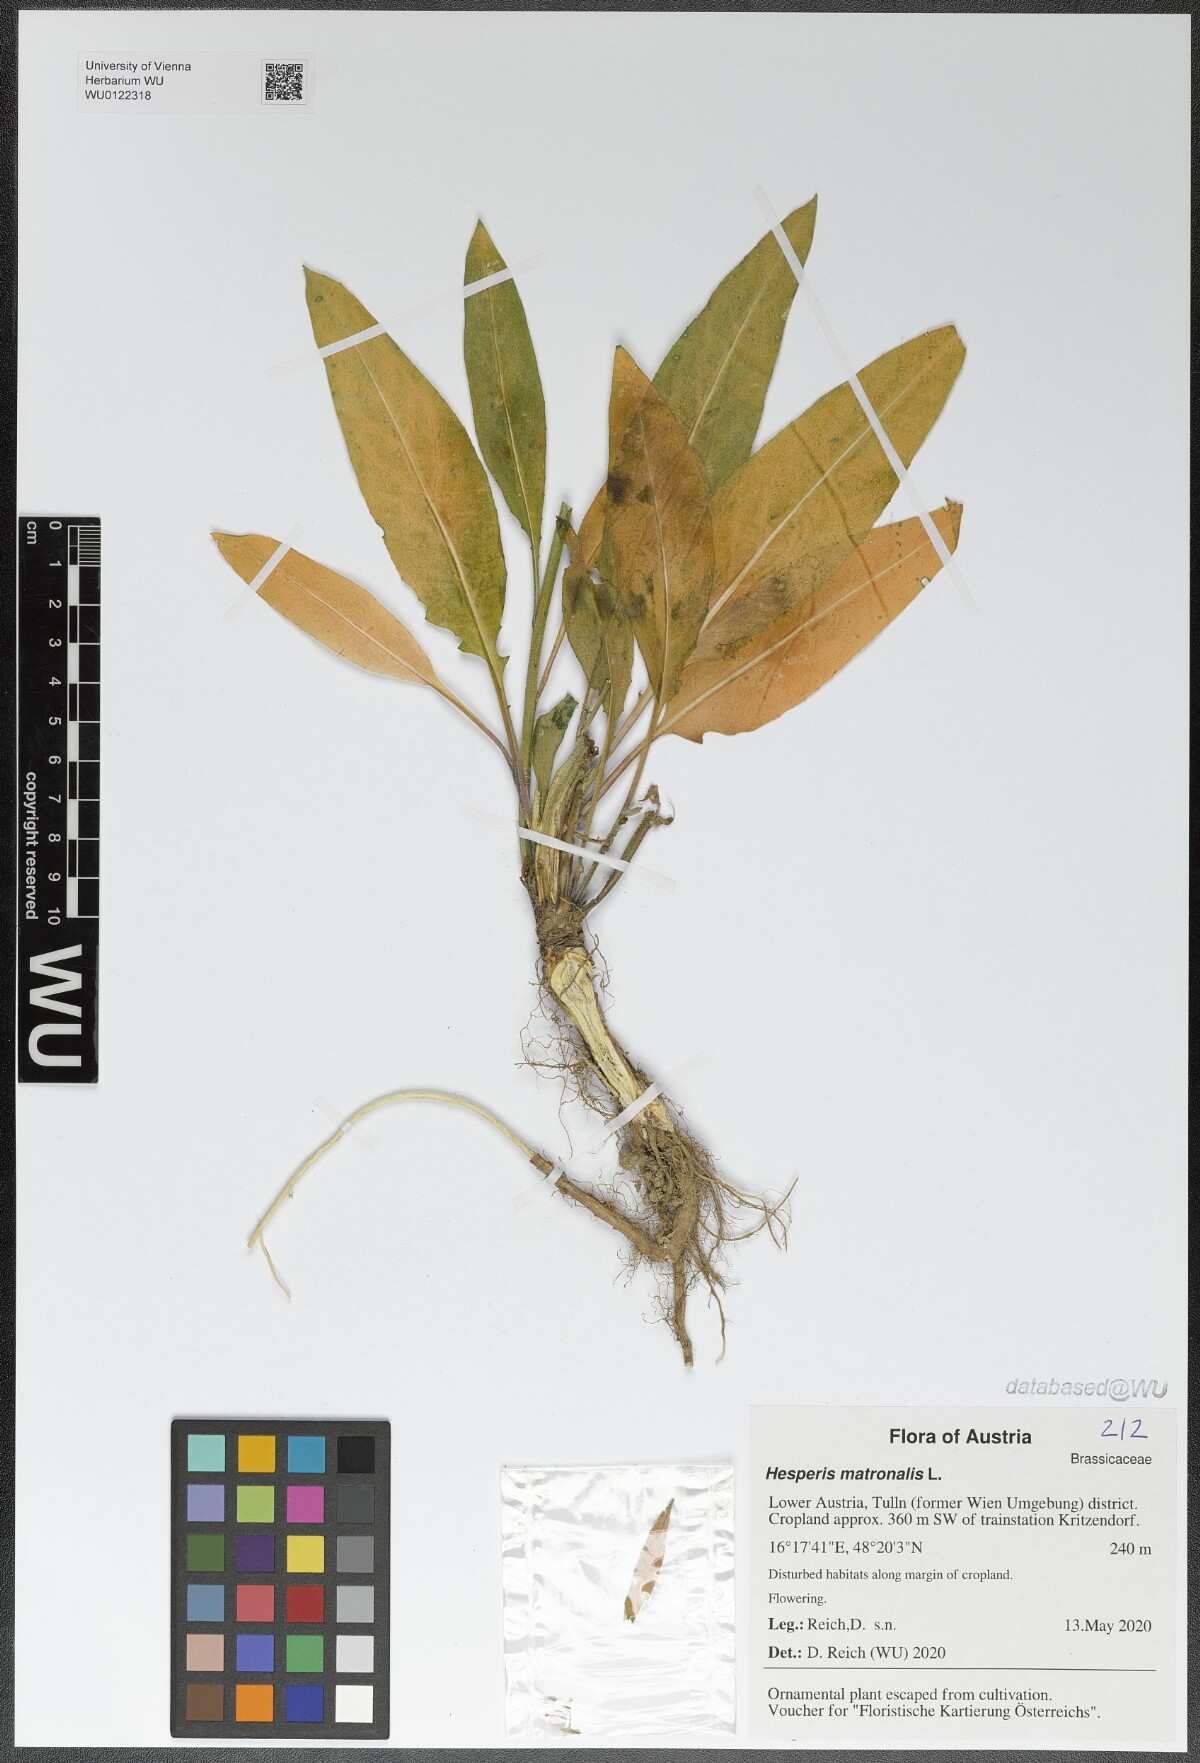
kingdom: Plantae
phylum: Tracheophyta
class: Magnoliopsida
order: Brassicales
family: Brassicaceae
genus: Hesperis
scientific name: Hesperis matronalis
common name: Dame's-violet
